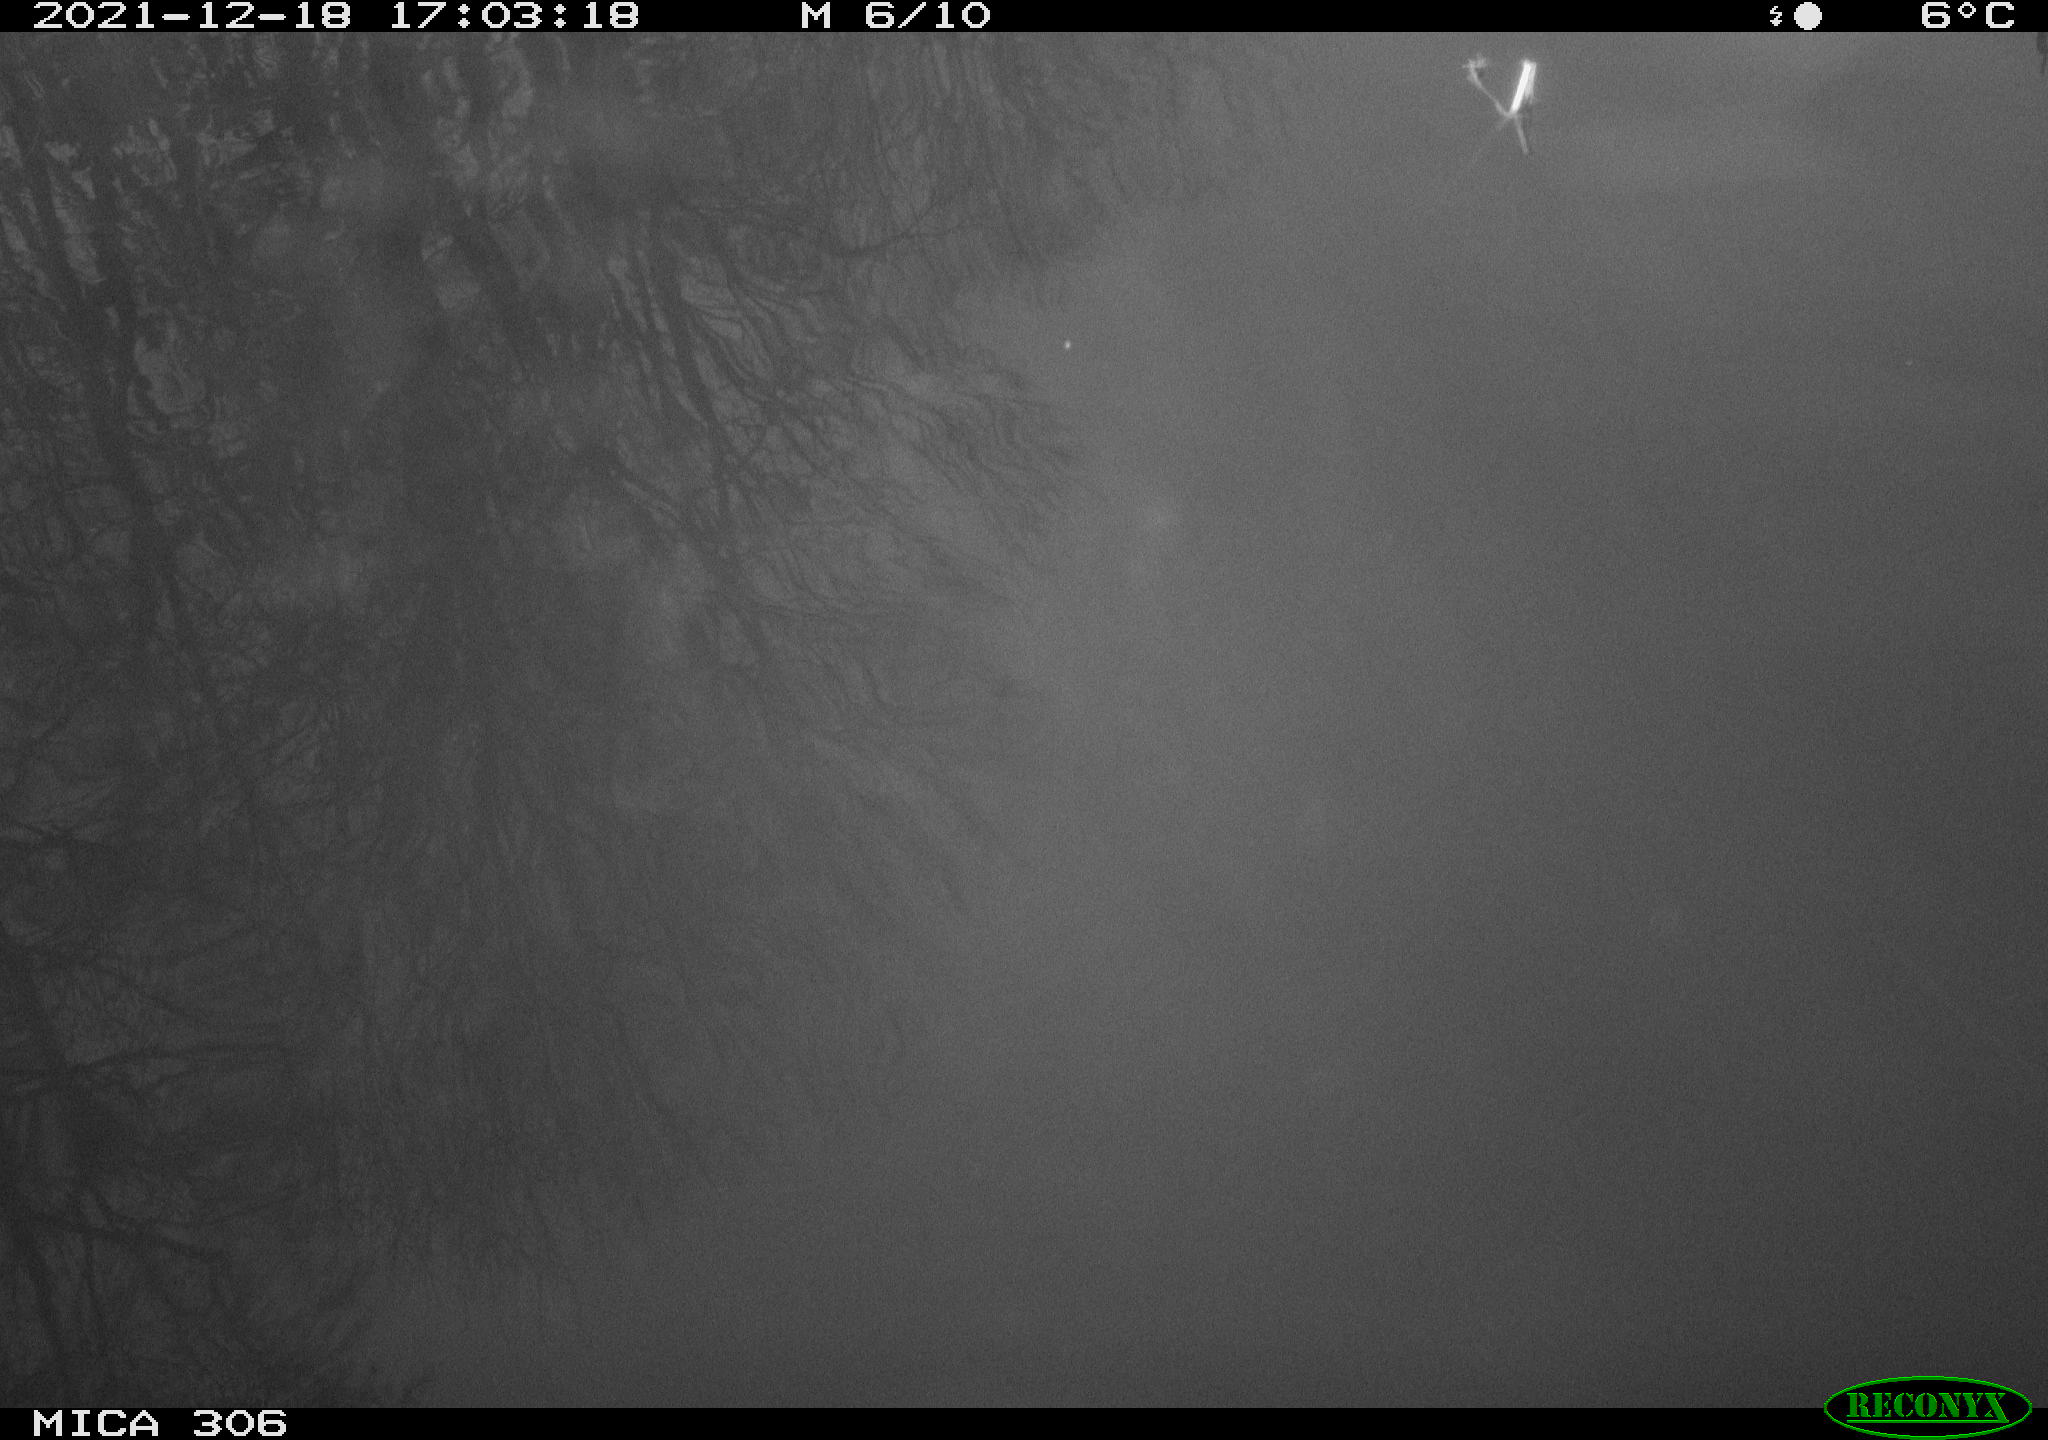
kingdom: Animalia
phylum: Chordata
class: Aves
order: Gruiformes
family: Rallidae
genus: Gallinula
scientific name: Gallinula chloropus
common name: Common moorhen
